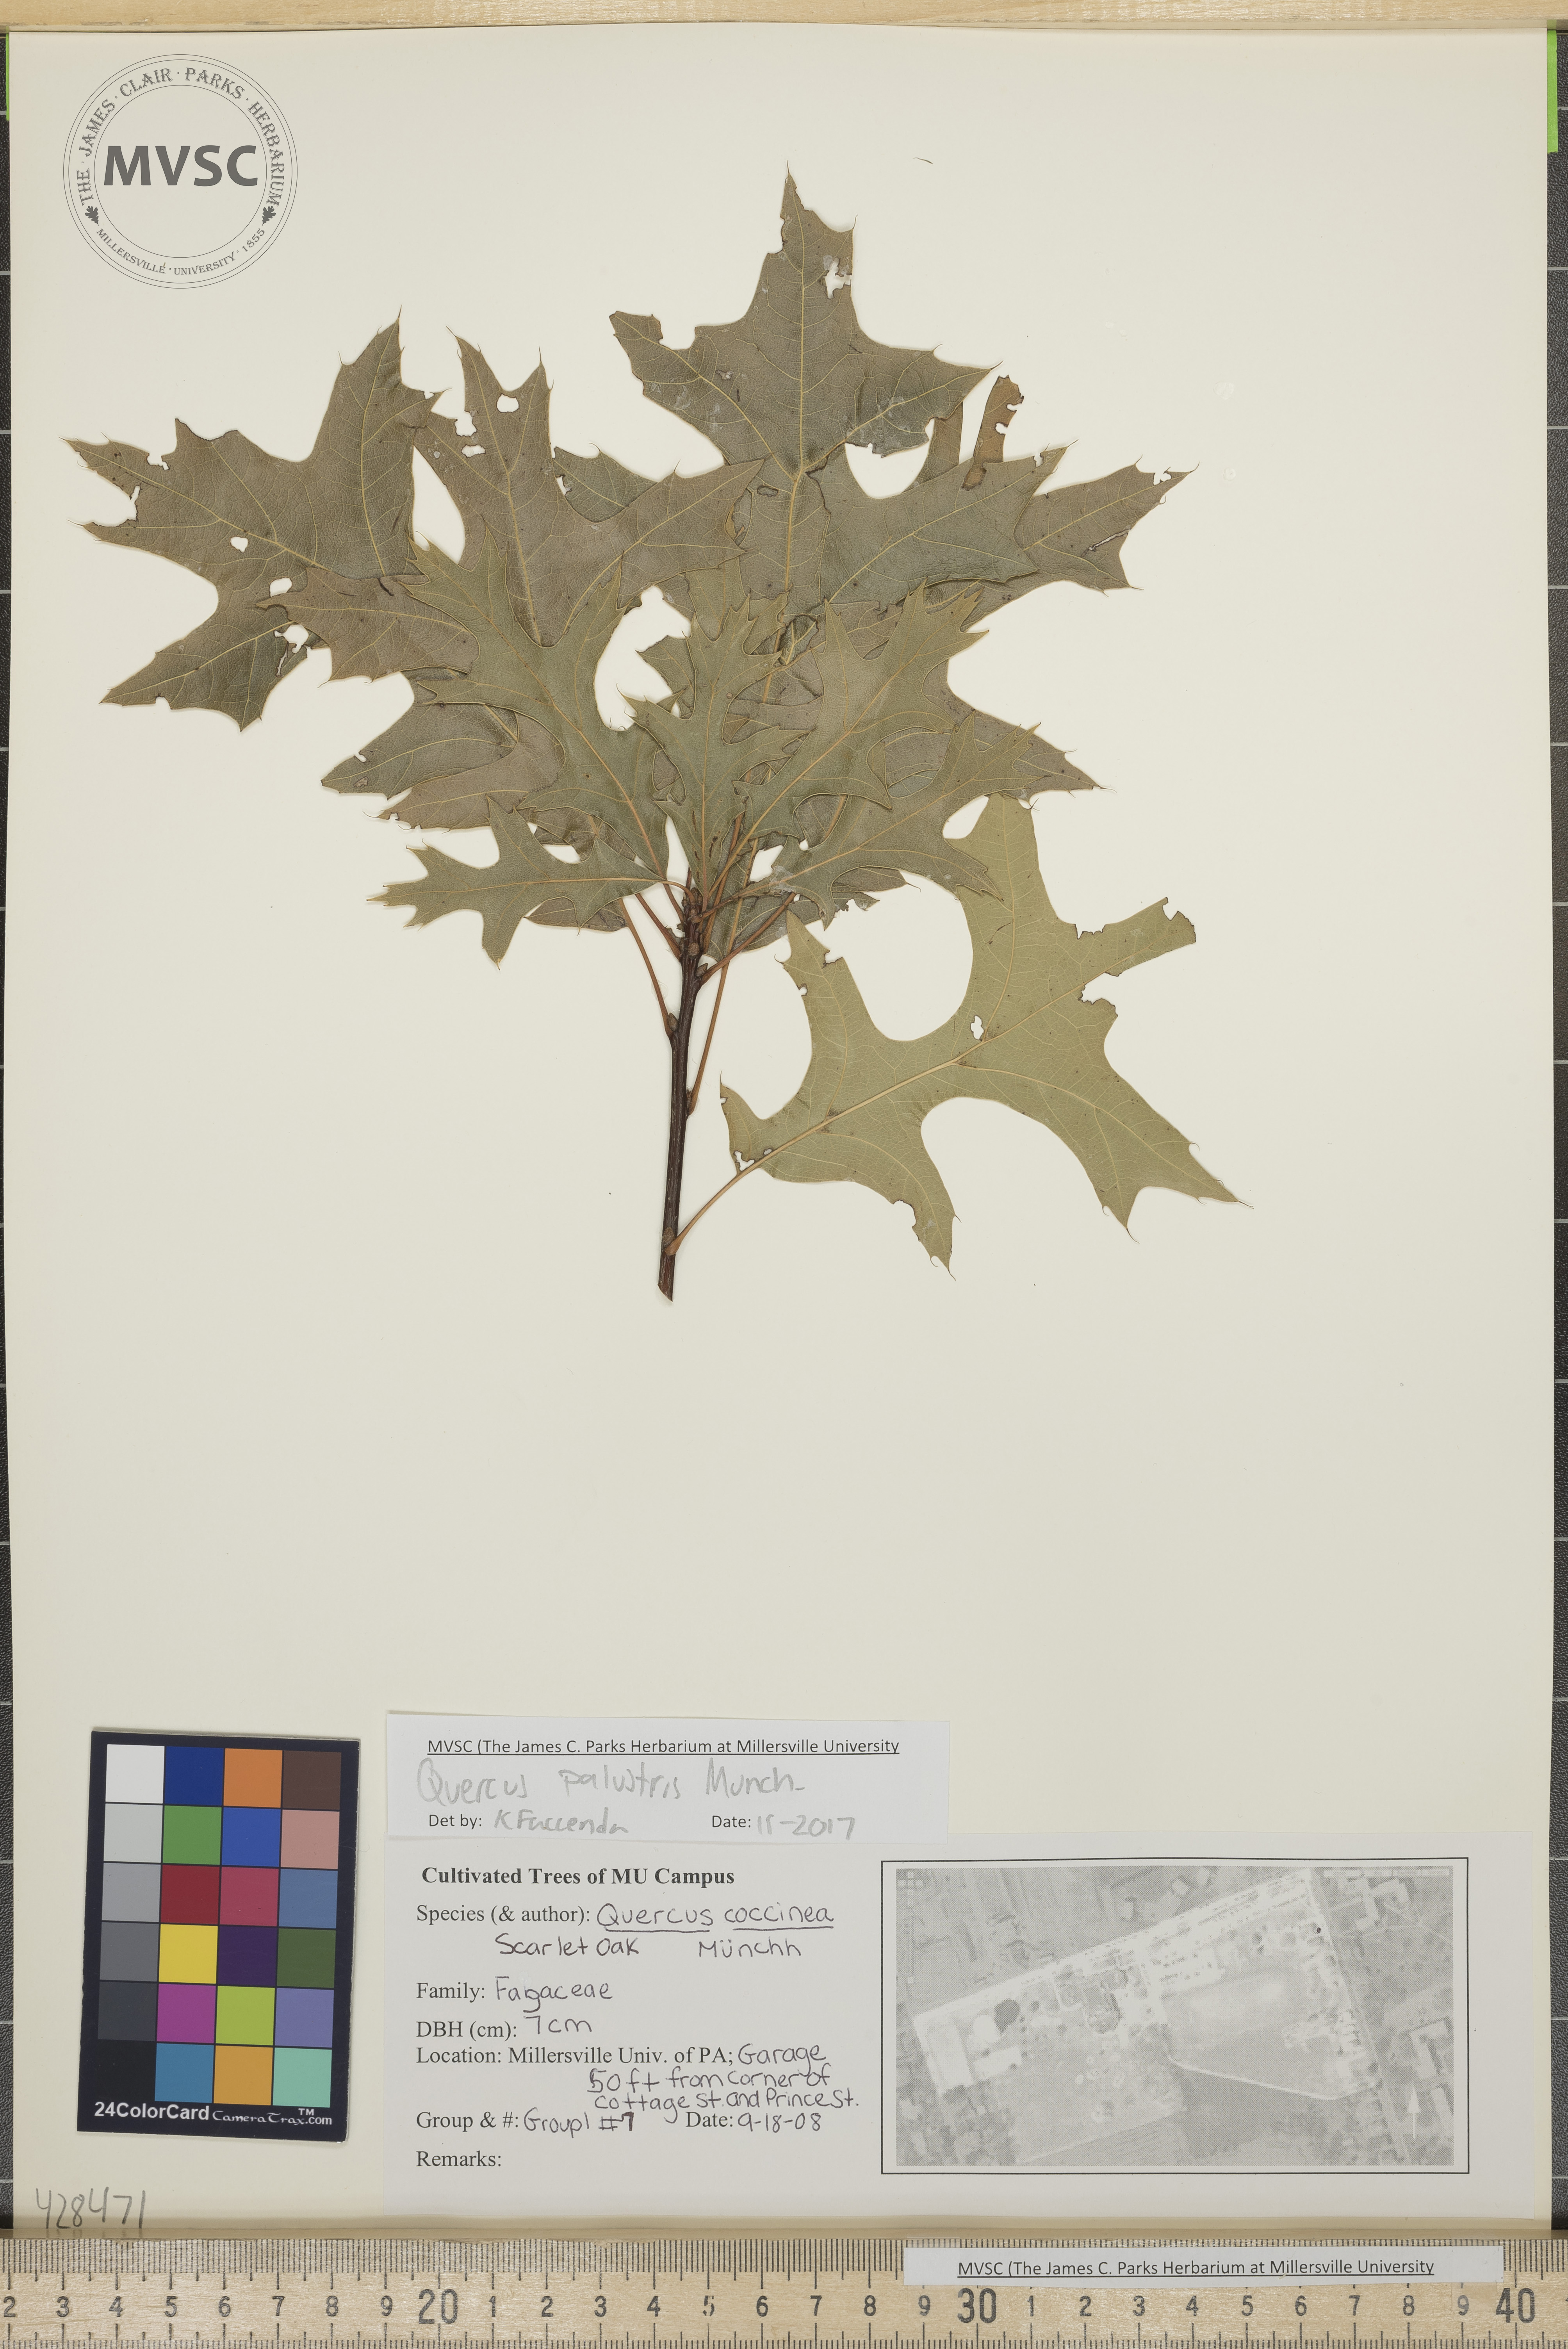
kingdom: Plantae
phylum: Tracheophyta
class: Magnoliopsida
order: Fagales
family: Fagaceae
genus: Quercus
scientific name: Quercus palustris
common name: Pin oak
